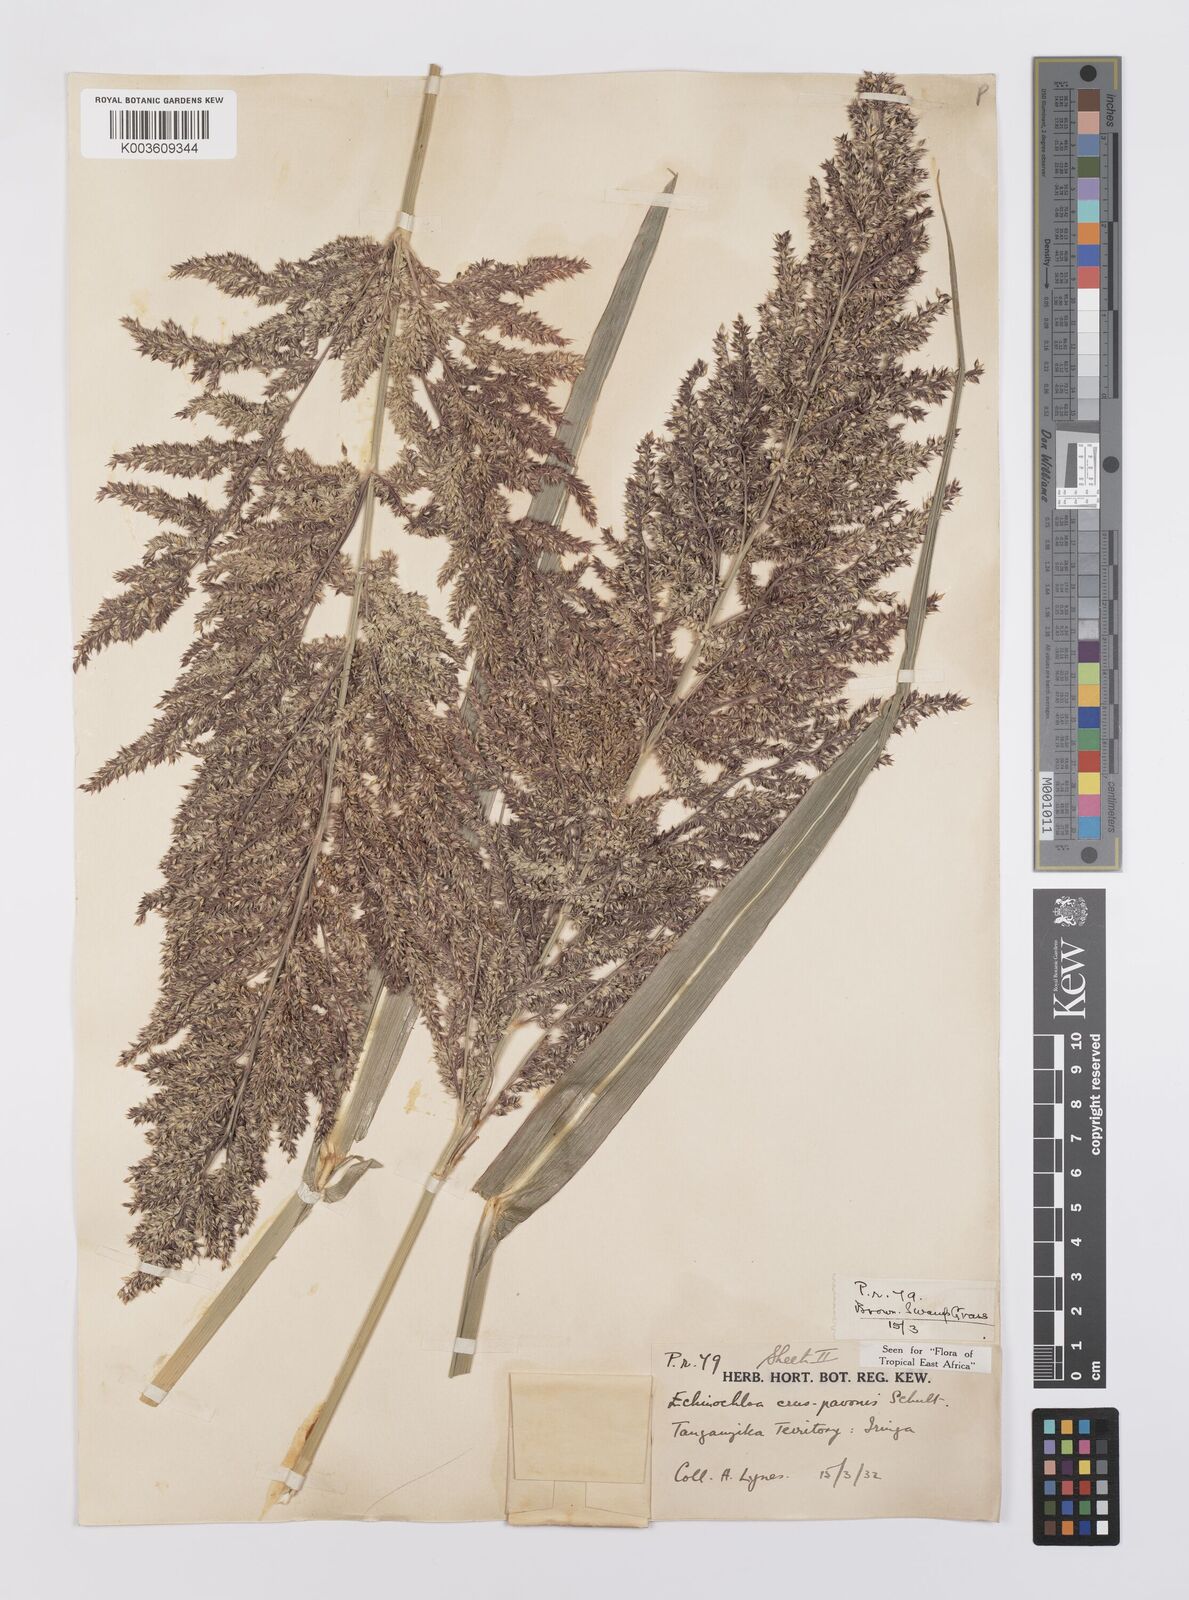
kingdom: Plantae
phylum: Tracheophyta
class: Liliopsida
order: Poales
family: Poaceae
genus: Echinochloa
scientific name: Echinochloa crus-pavonis
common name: Gulf cockspur grass
